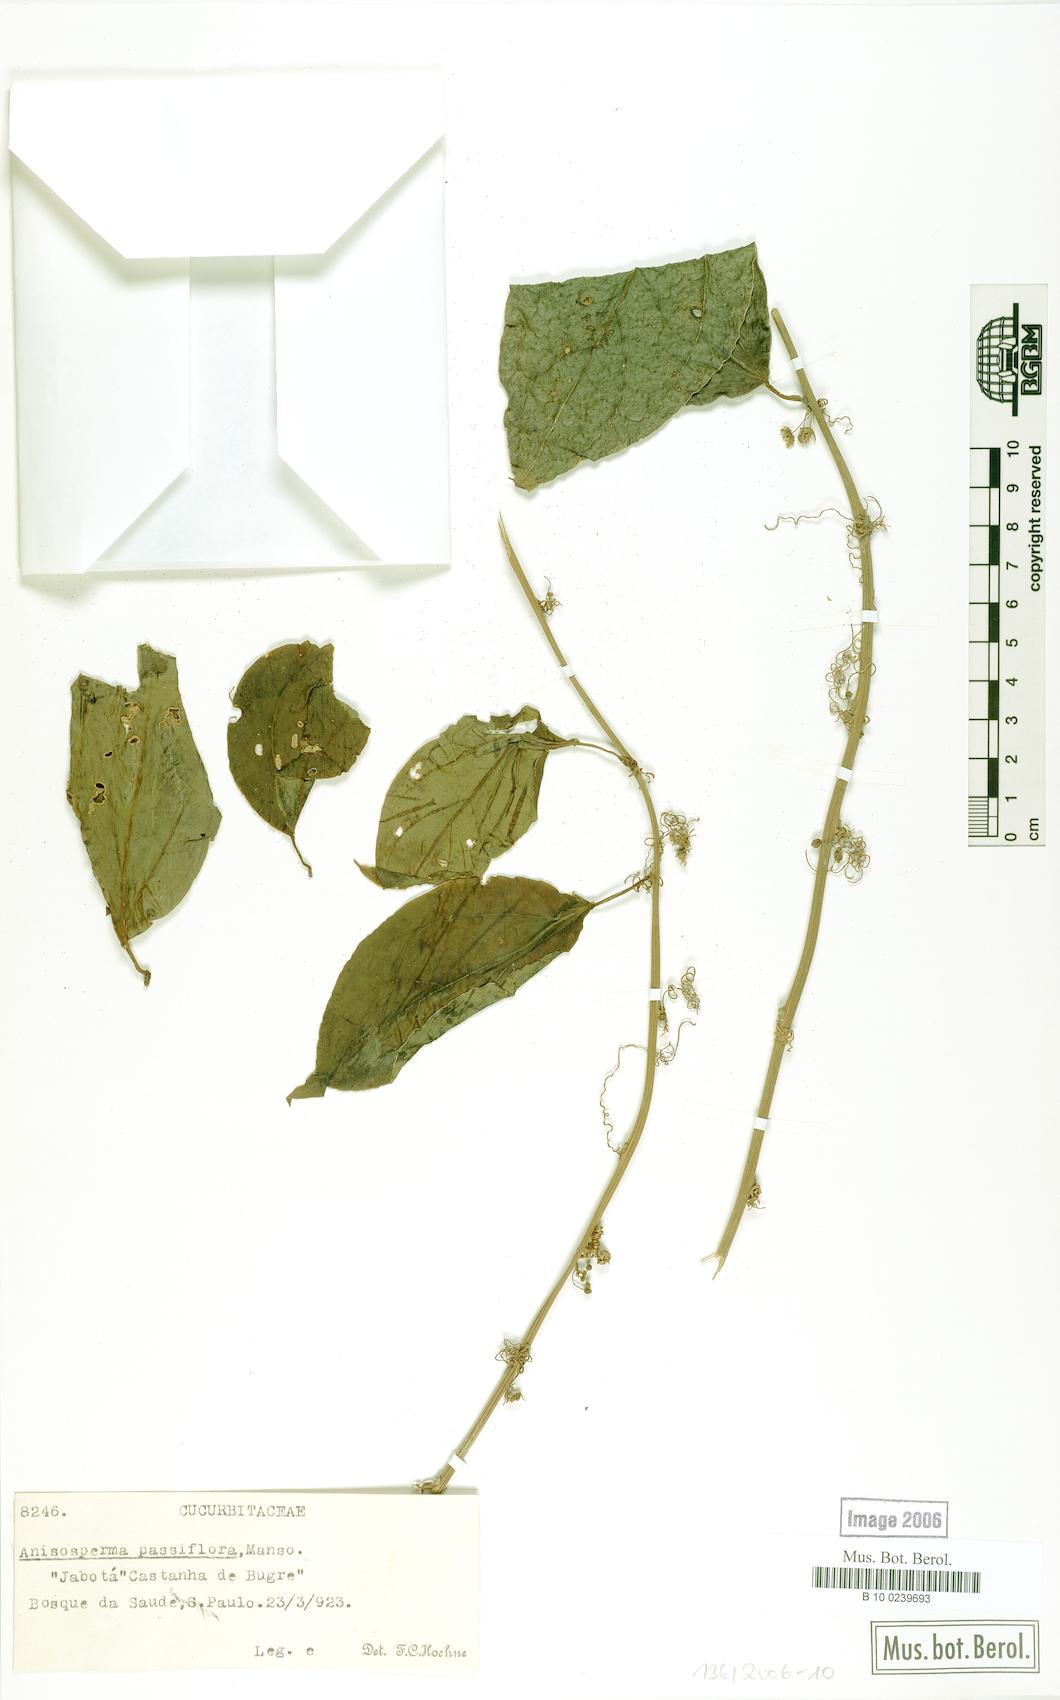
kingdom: Plantae
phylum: Tracheophyta
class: Magnoliopsida
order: Cucurbitales
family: Cucurbitaceae
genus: Anisosperma
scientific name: Anisosperma passiflora
